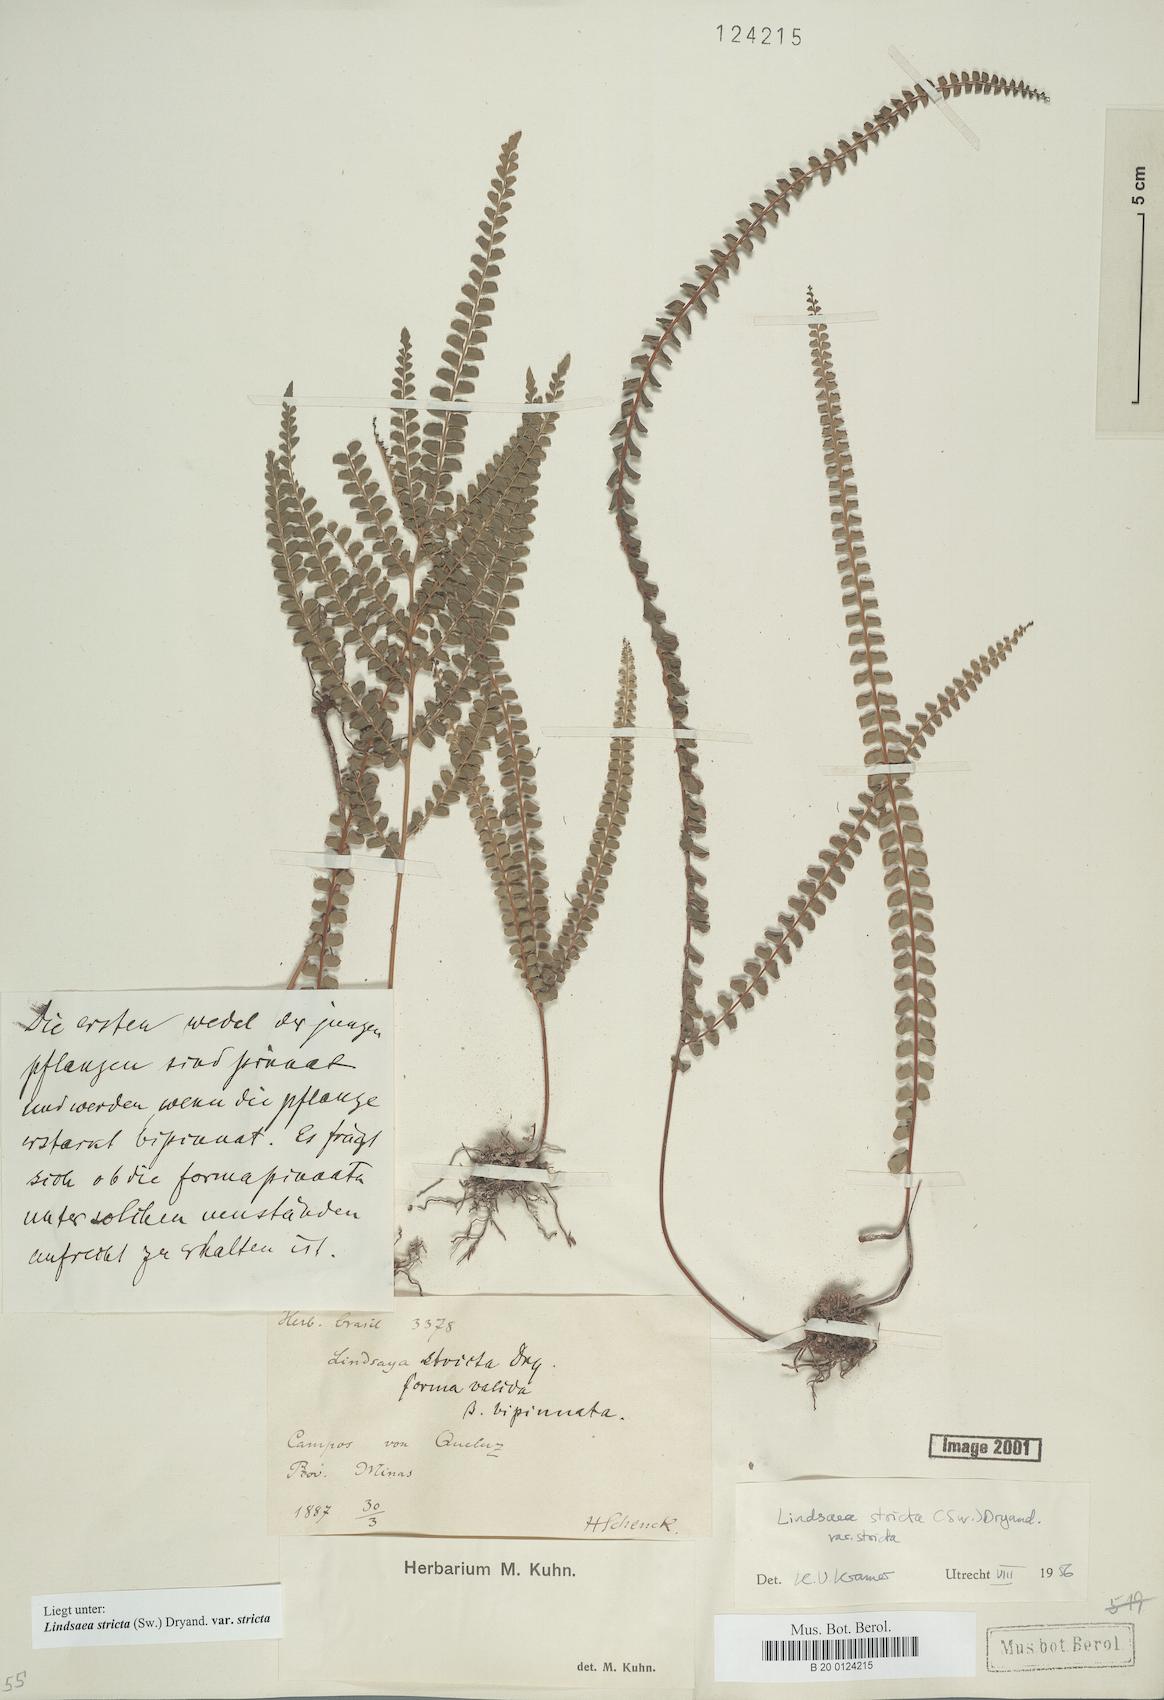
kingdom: Plantae
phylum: Tracheophyta
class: Polypodiopsida
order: Polypodiales
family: Lindsaeaceae
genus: Lindsaea
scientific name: Lindsaea stricta
